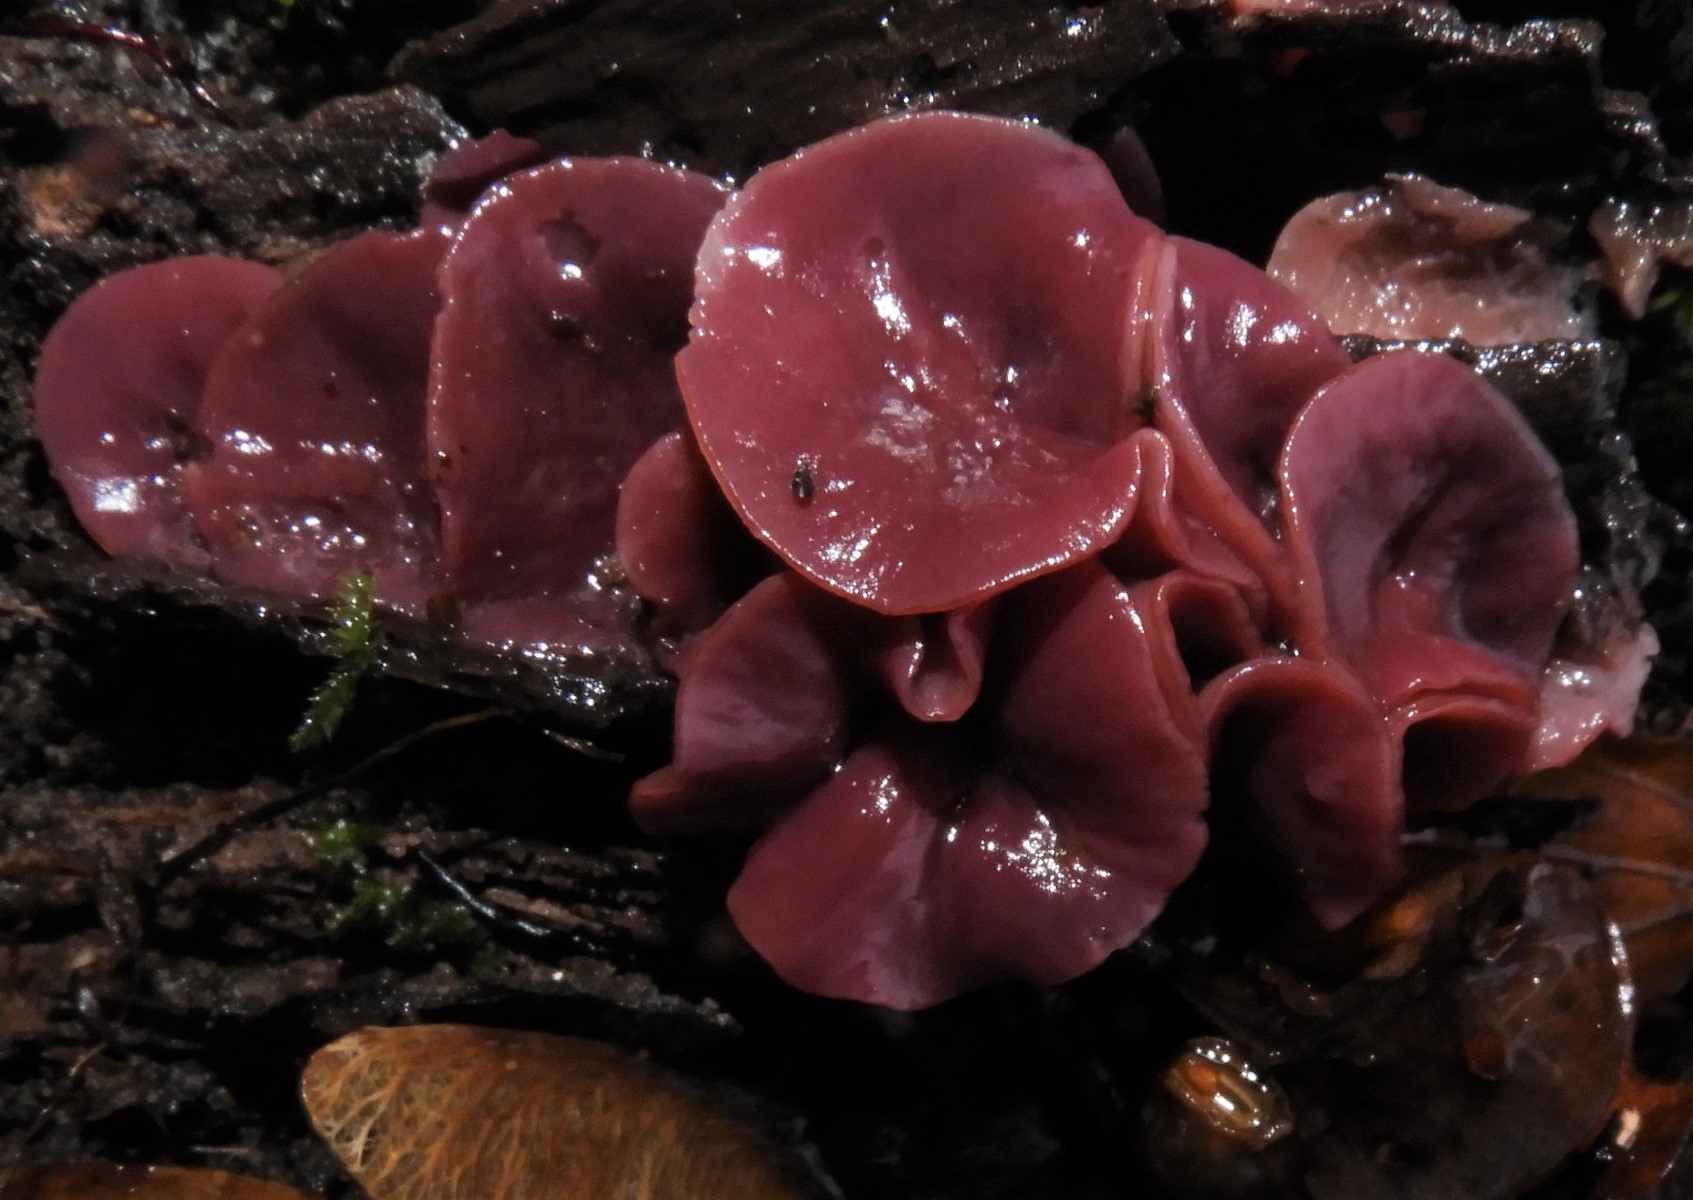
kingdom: Fungi
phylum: Ascomycota
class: Leotiomycetes
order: Helotiales
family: Gelatinodiscaceae
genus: Ascocoryne
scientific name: Ascocoryne cylichnium
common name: stor sejskive
